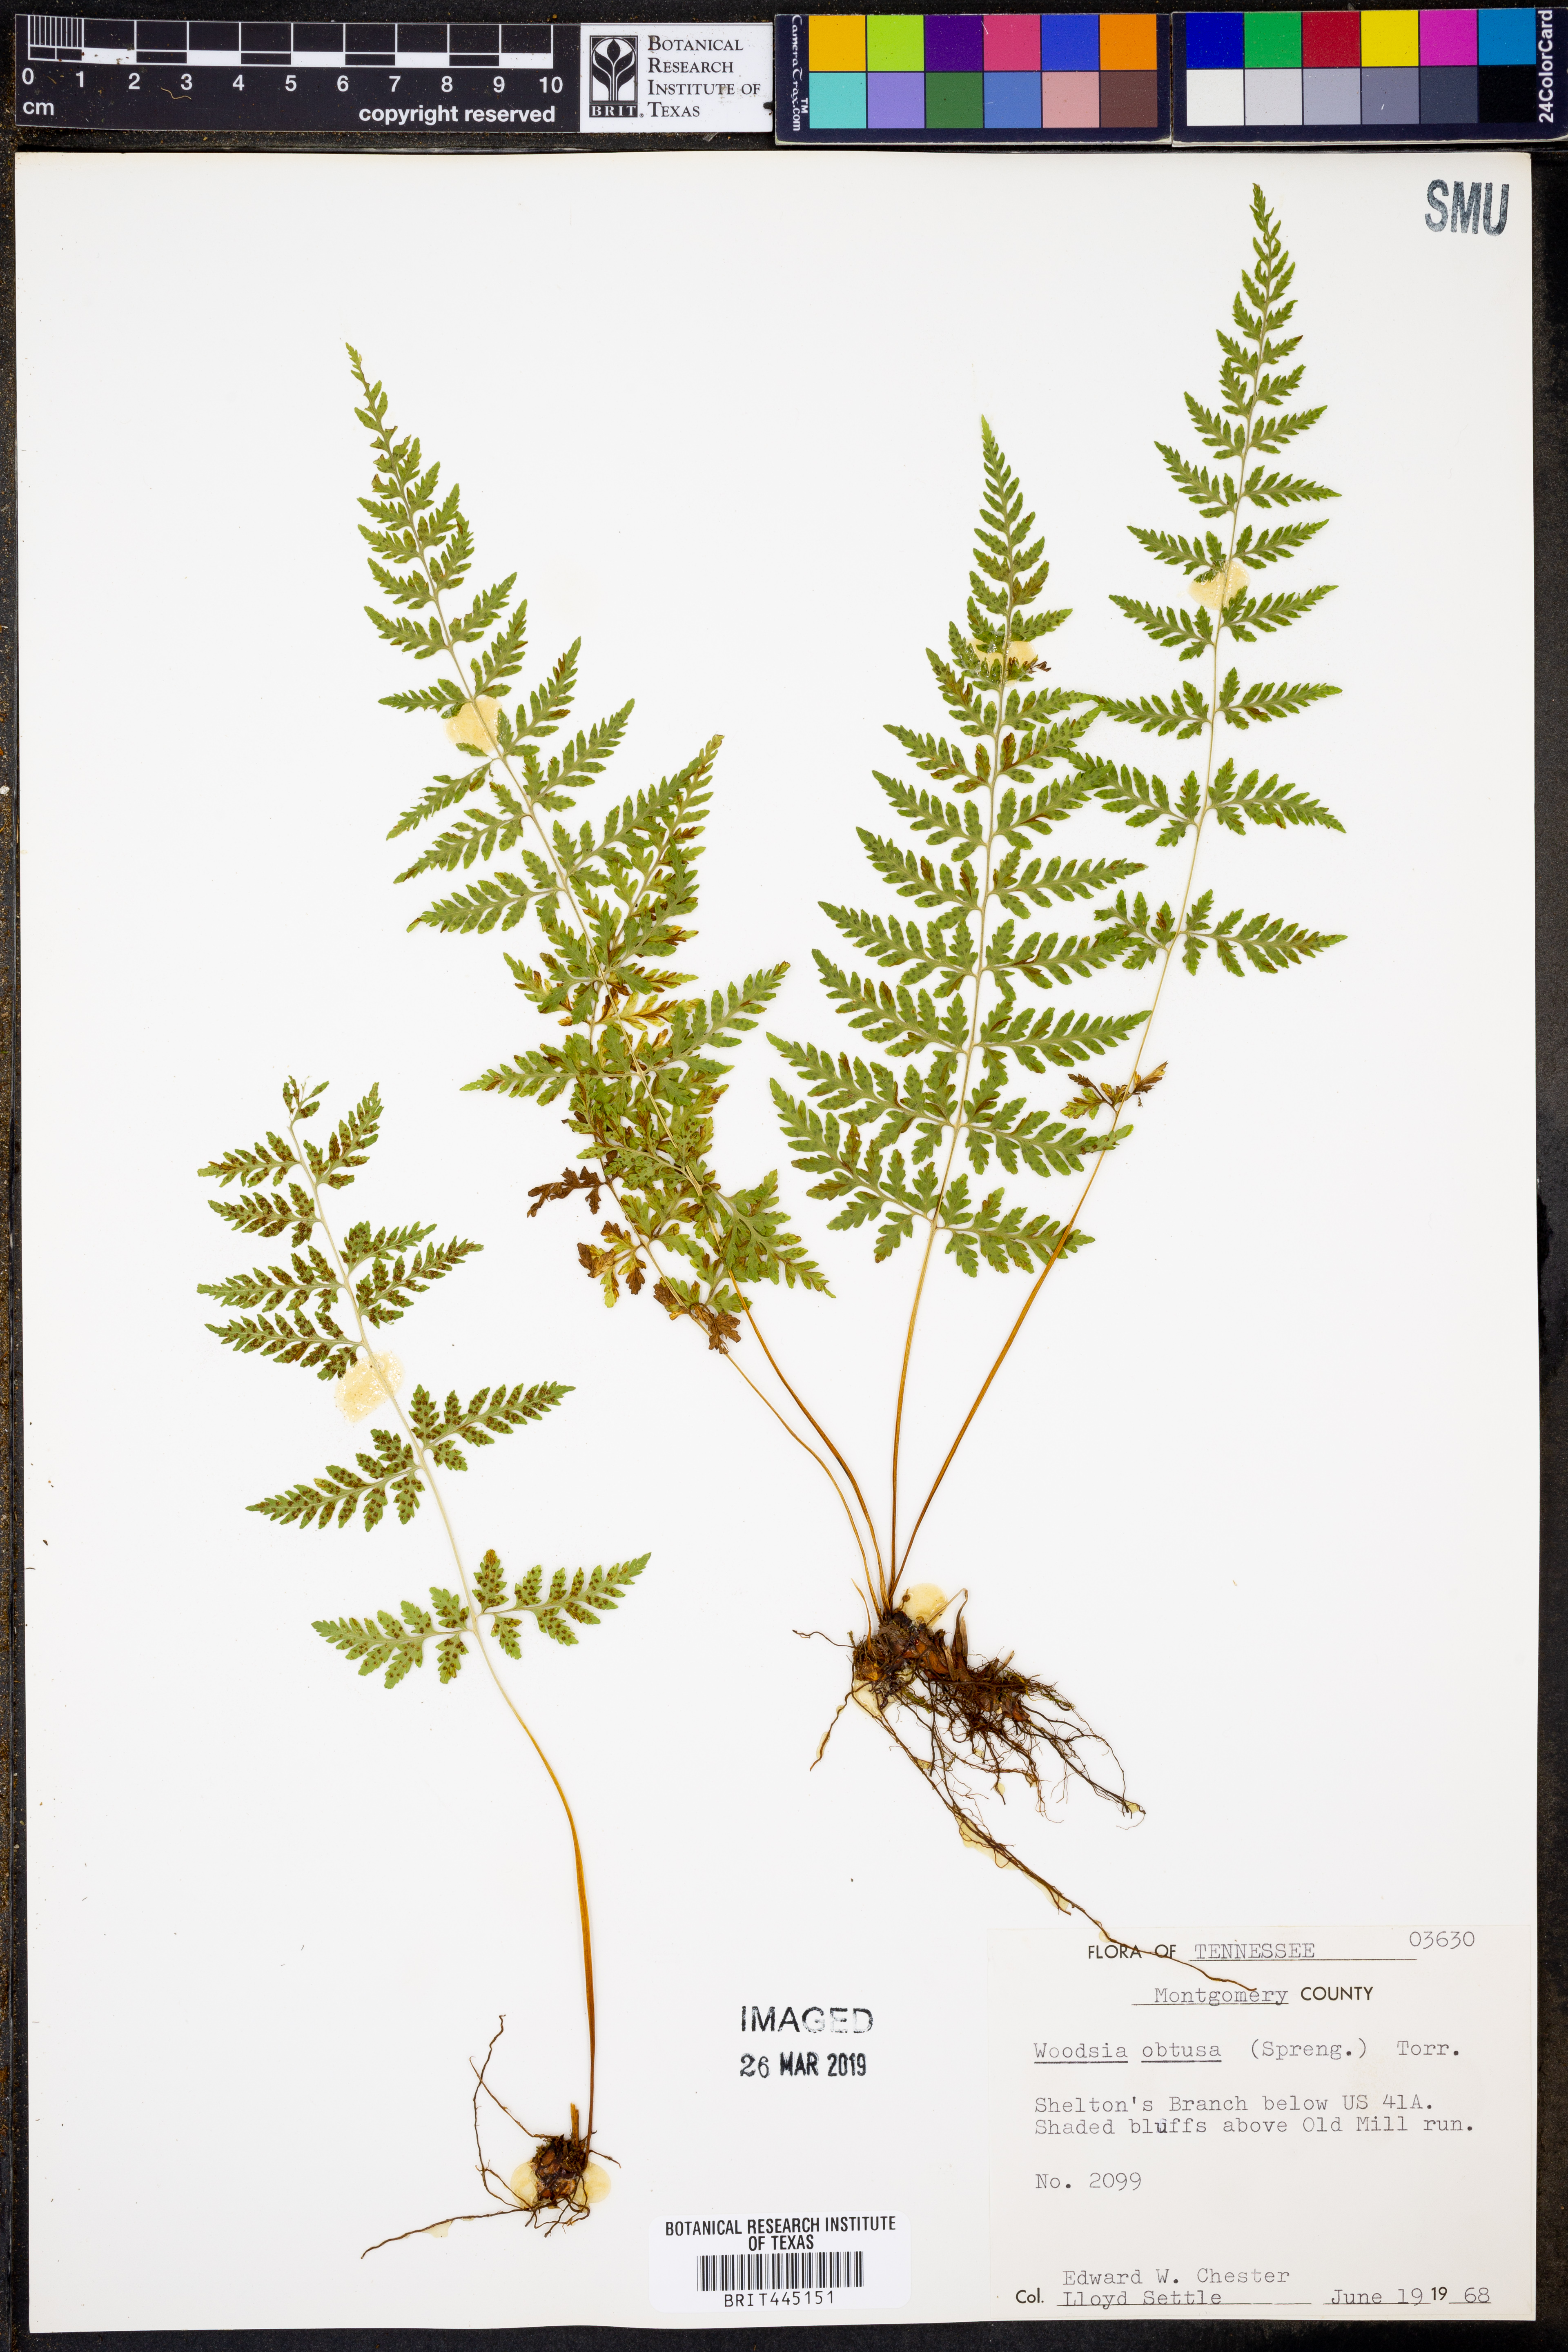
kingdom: Plantae
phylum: Tracheophyta
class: Polypodiopsida
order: Polypodiales
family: Woodsiaceae
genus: Physematium
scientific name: Physematium obtusum
